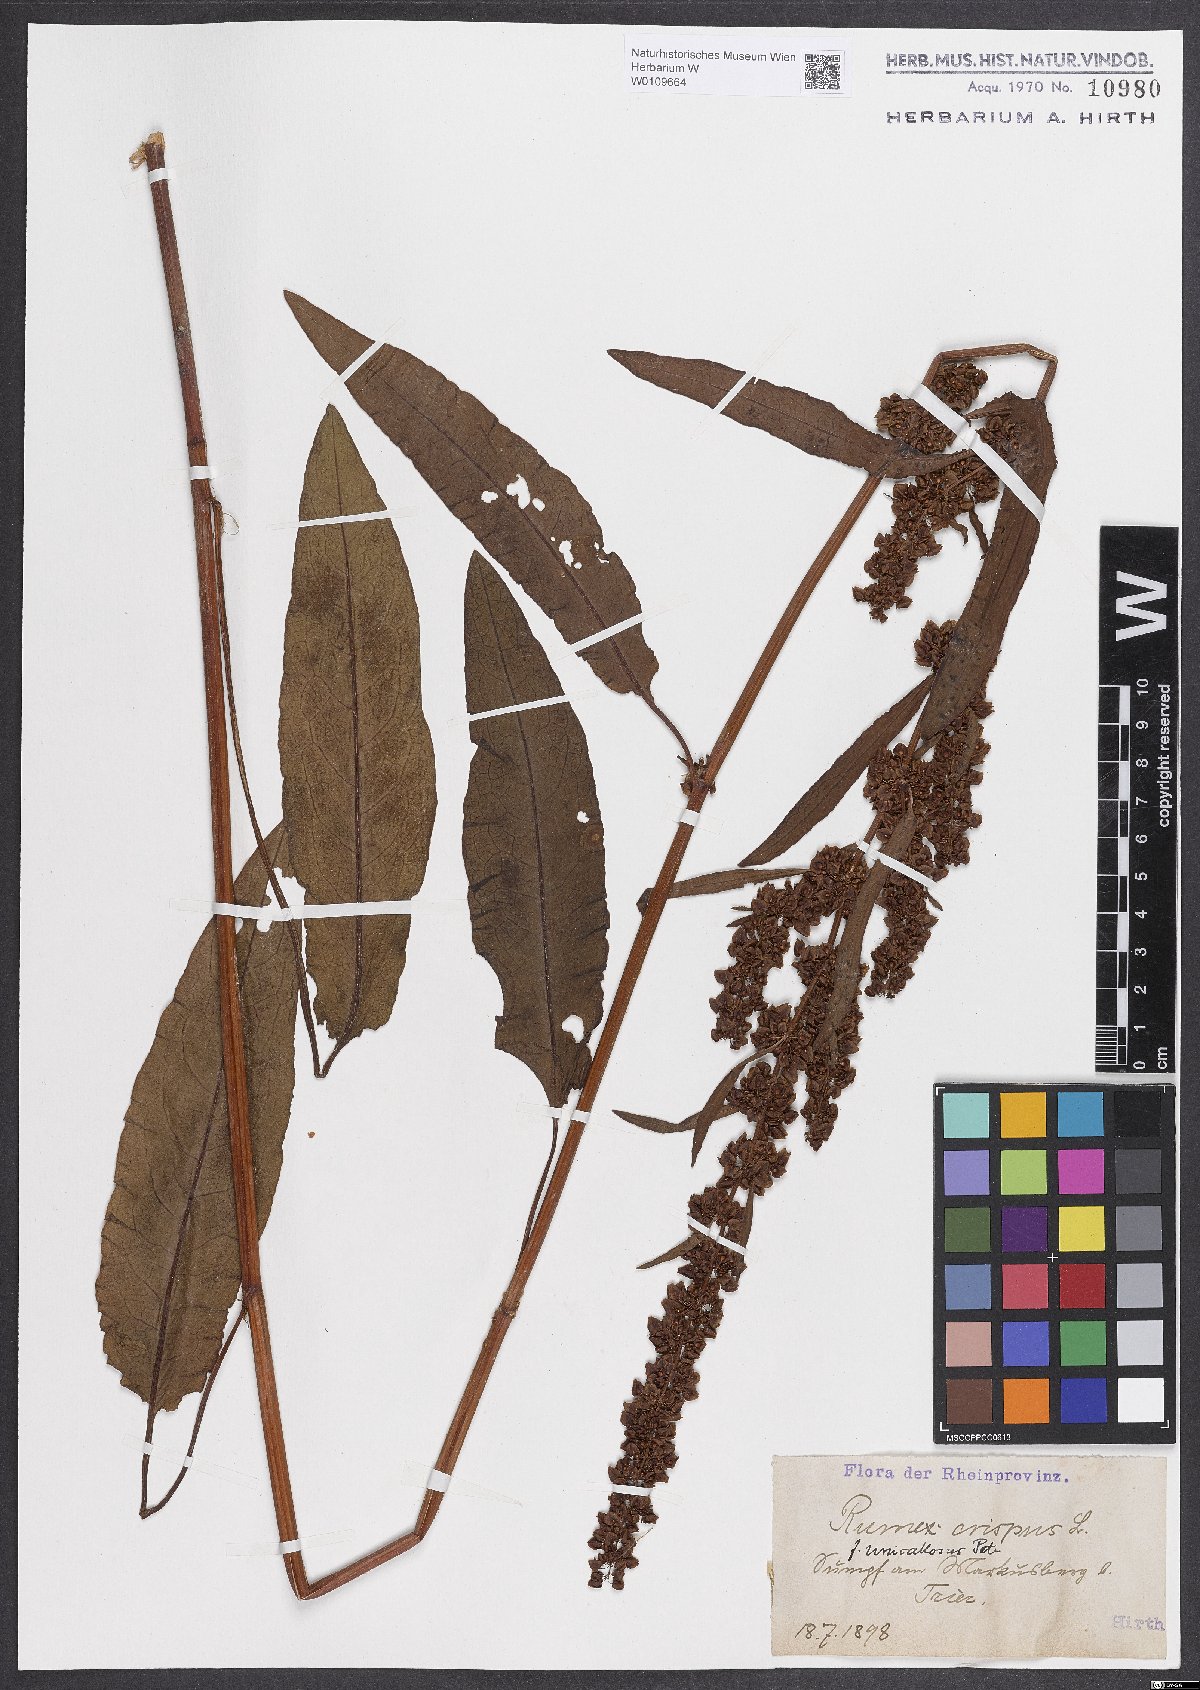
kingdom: Plantae
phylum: Tracheophyta
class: Magnoliopsida
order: Caryophyllales
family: Polygonaceae
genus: Rumex
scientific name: Rumex crispus
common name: Curled dock
